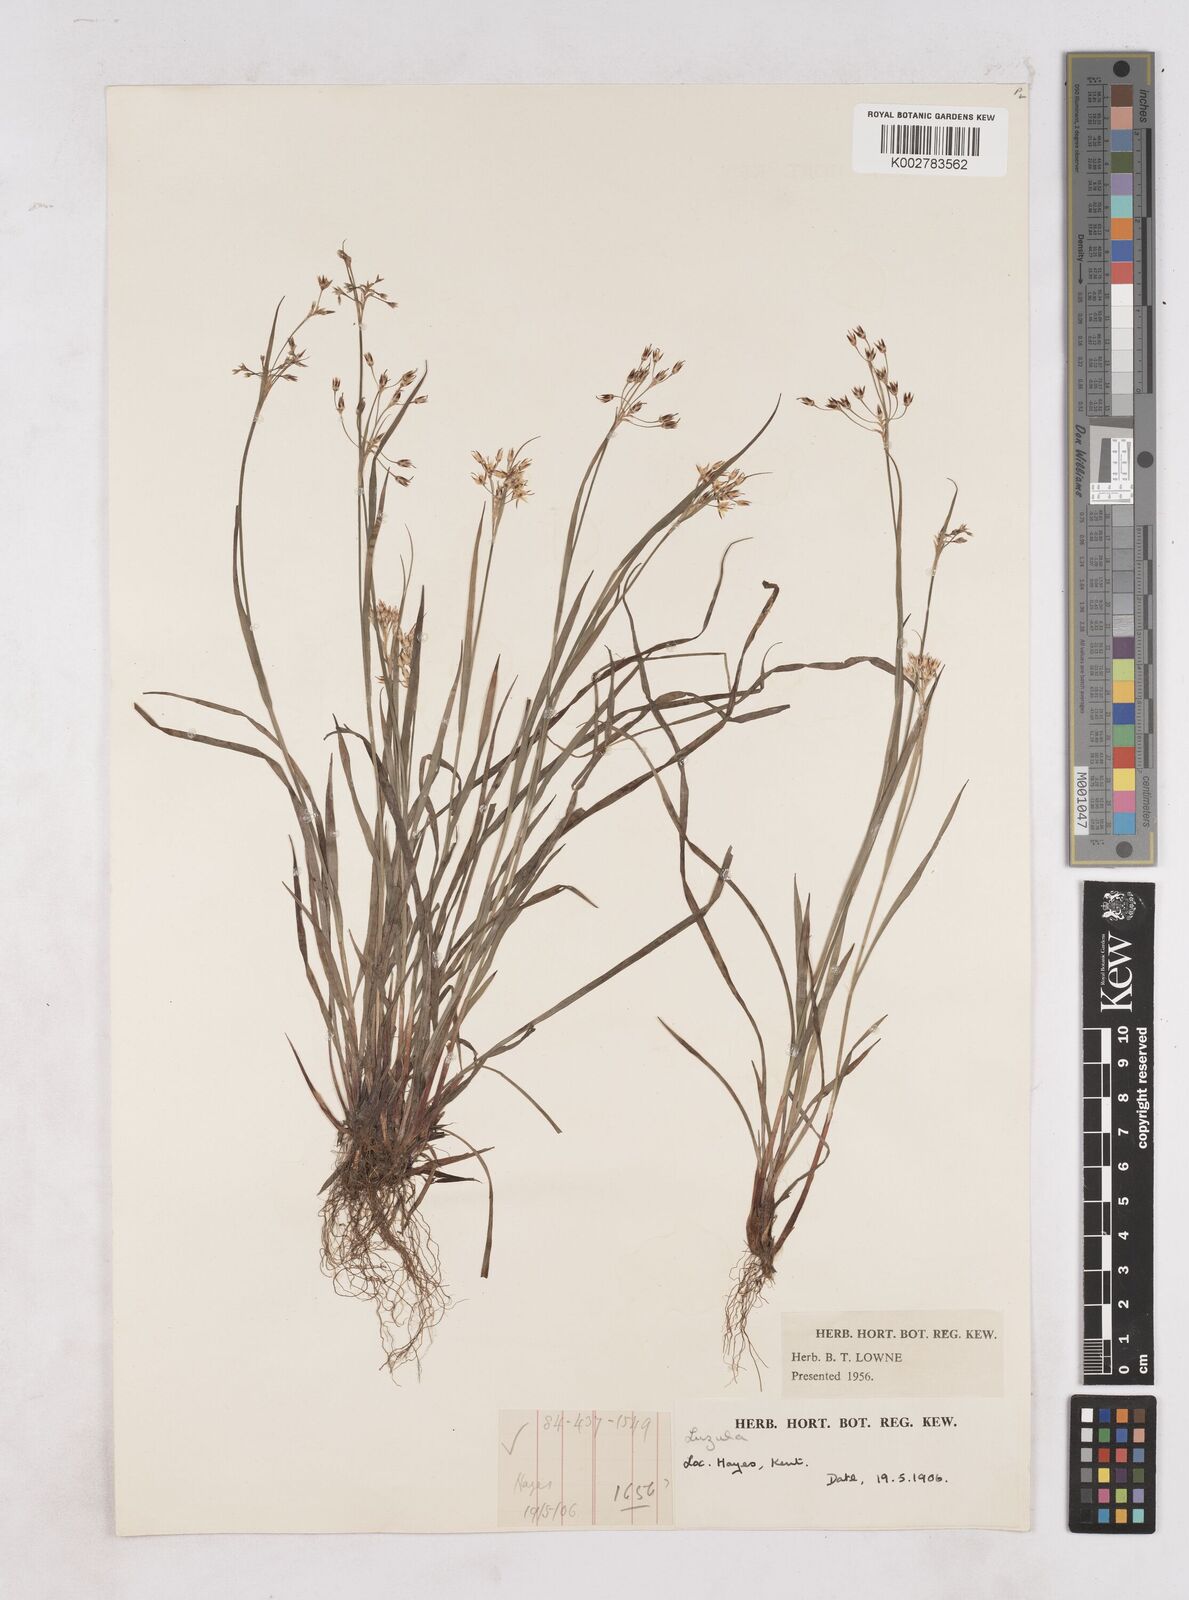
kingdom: Plantae
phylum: Tracheophyta
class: Liliopsida
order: Poales
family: Juncaceae
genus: Luzula
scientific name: Luzula
